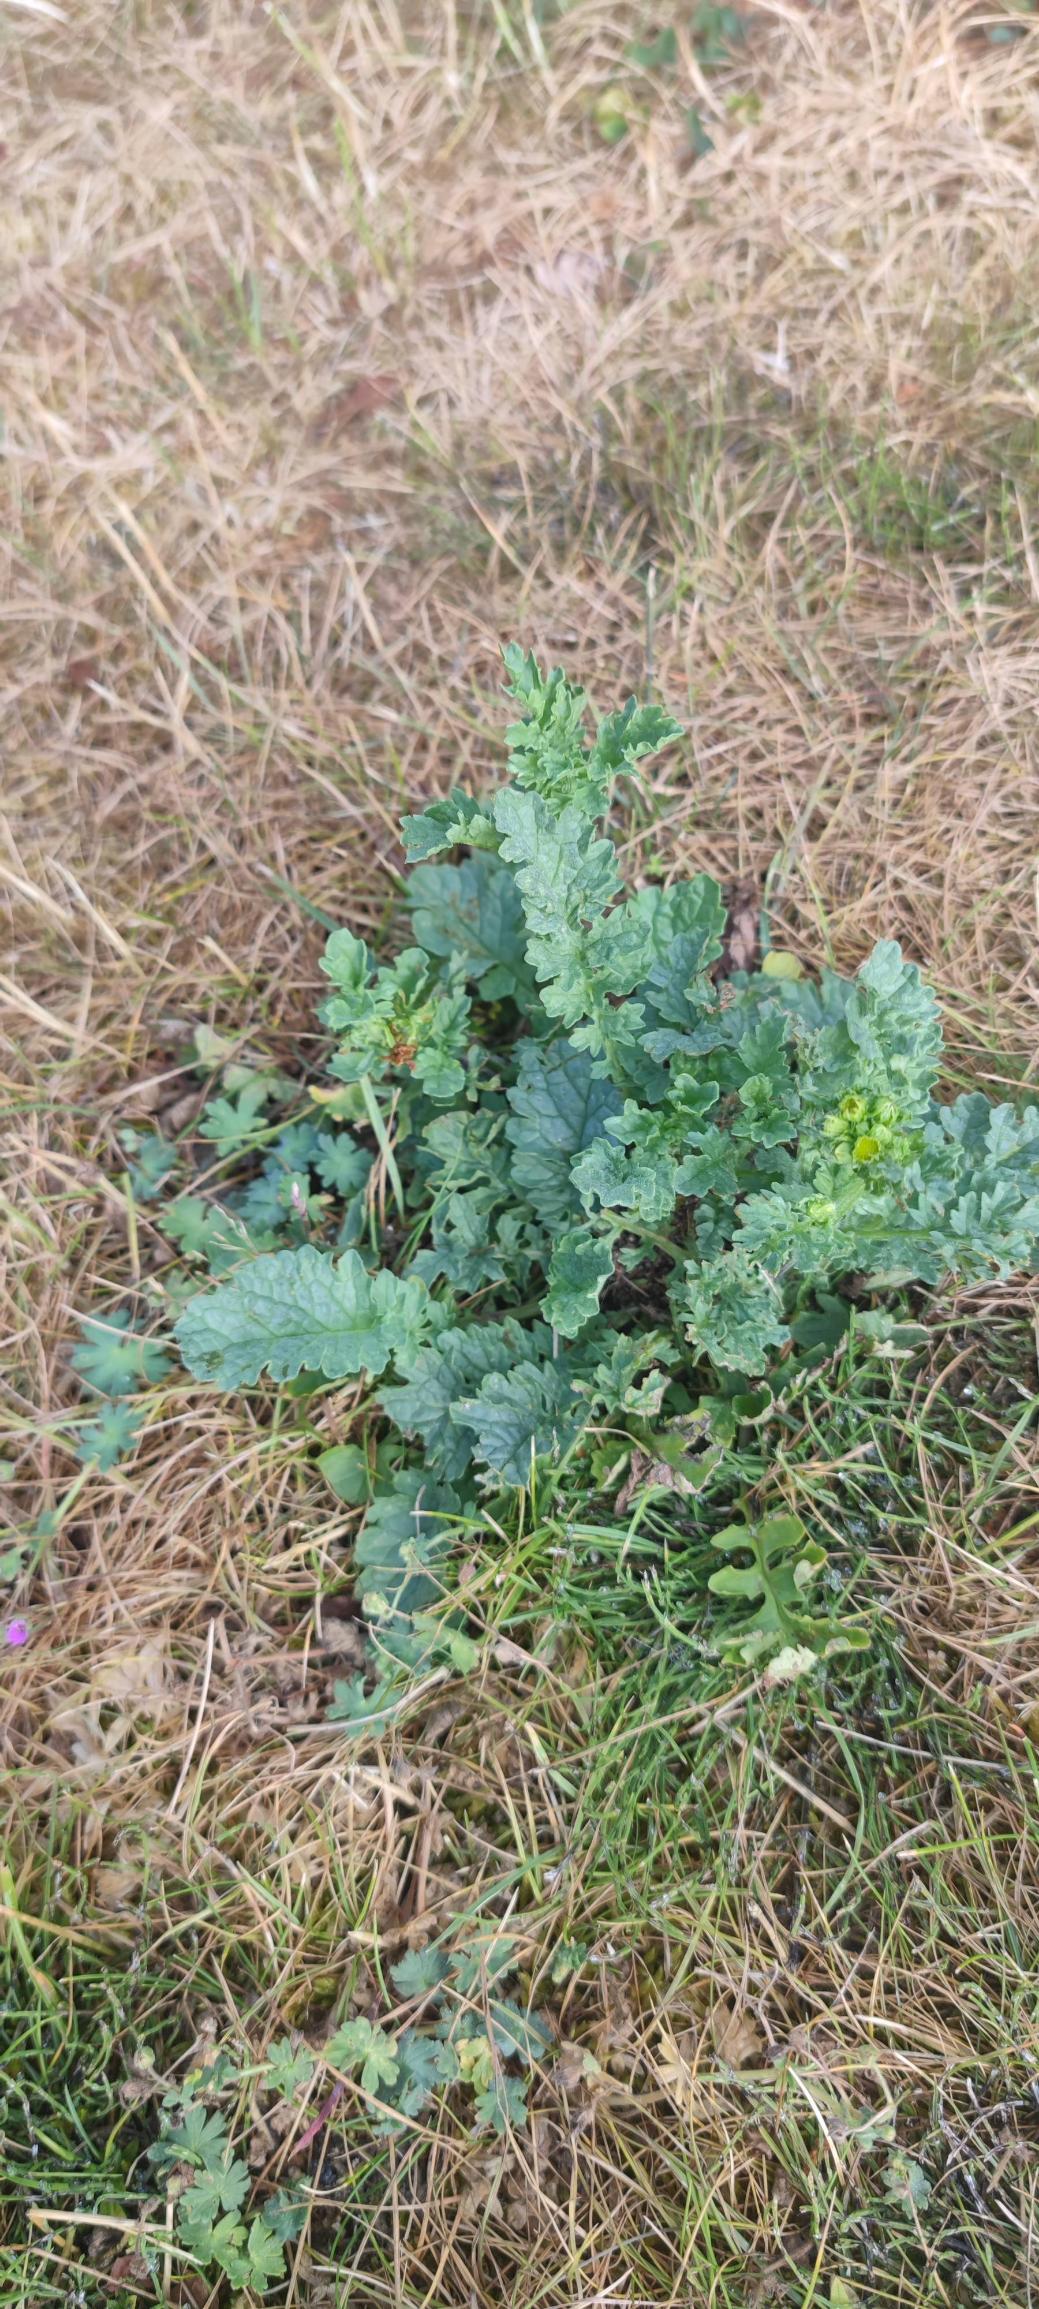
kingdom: Plantae
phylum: Tracheophyta
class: Magnoliopsida
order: Asterales
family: Asteraceae
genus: Jacobaea
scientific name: Jacobaea vulgaris
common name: Eng-brandbæger
